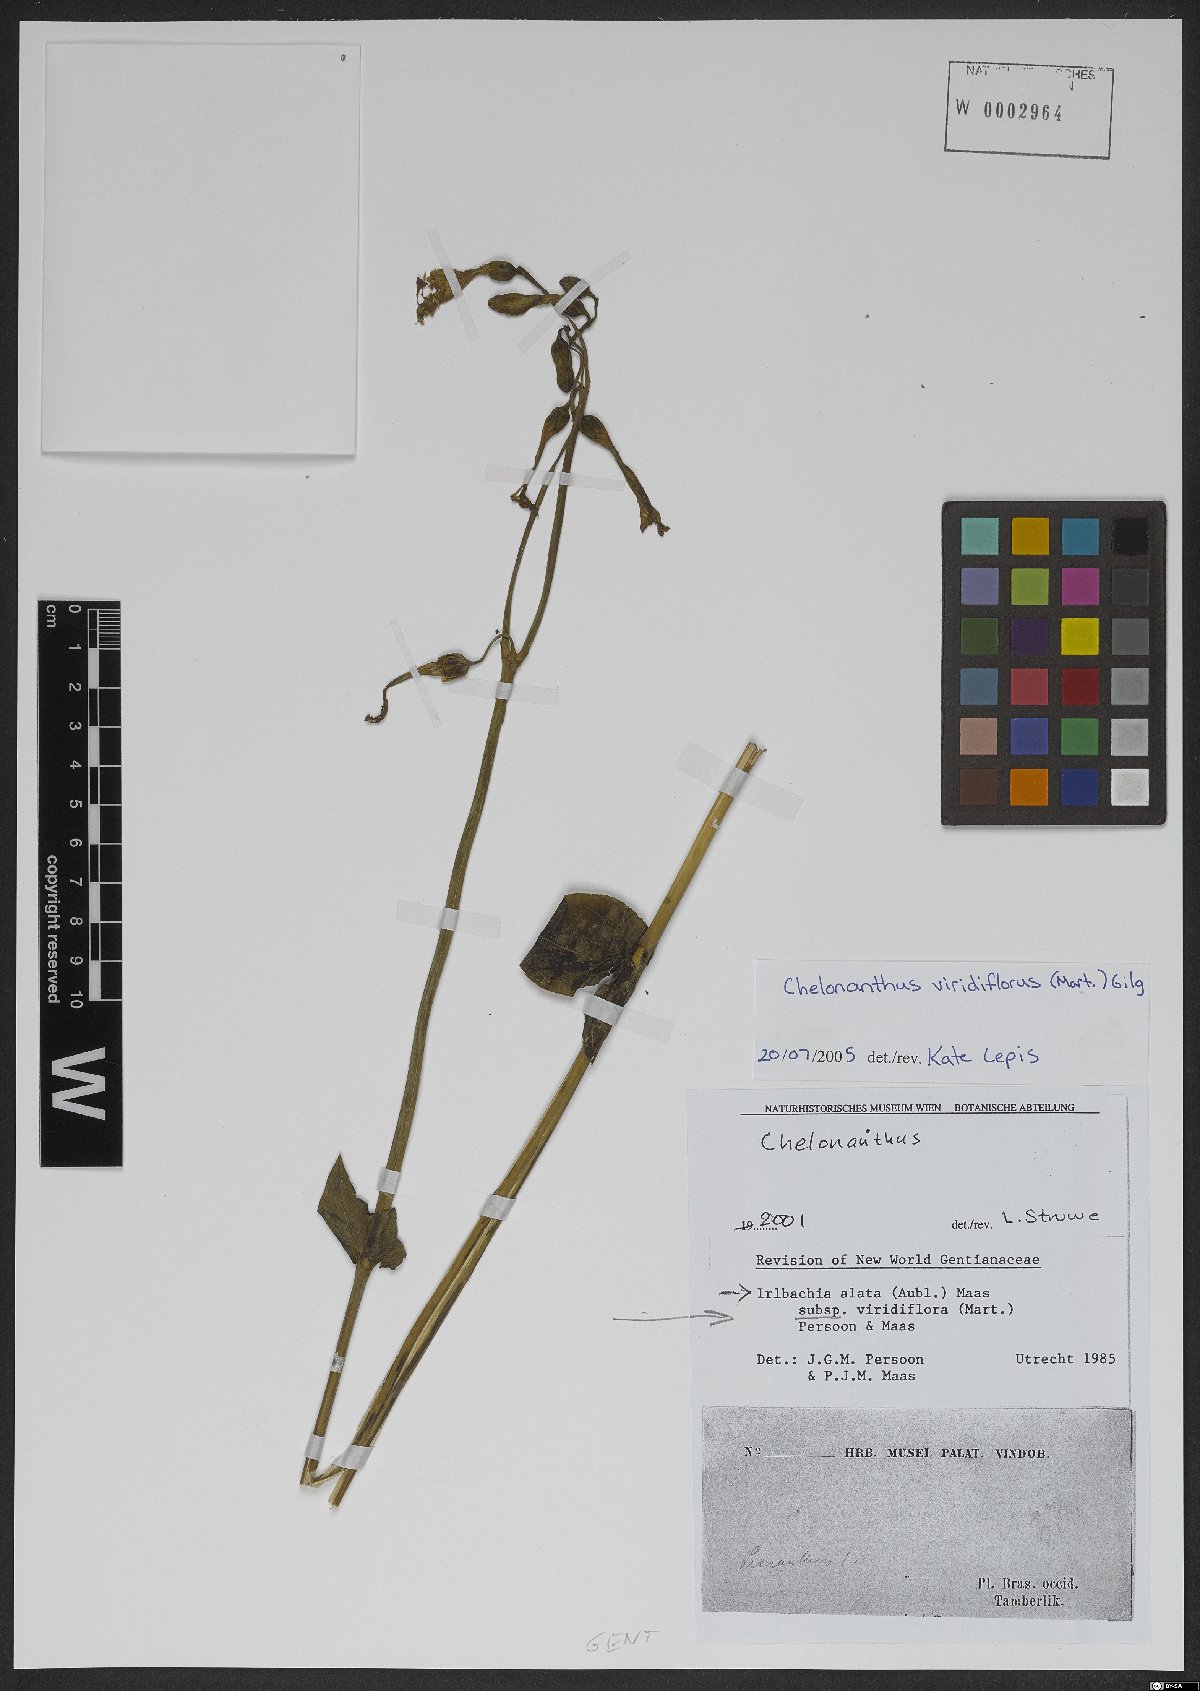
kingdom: Plantae
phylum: Tracheophyta
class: Magnoliopsida
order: Gentianales
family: Gentianaceae
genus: Chelonanthus
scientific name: Chelonanthus viridiflorus
